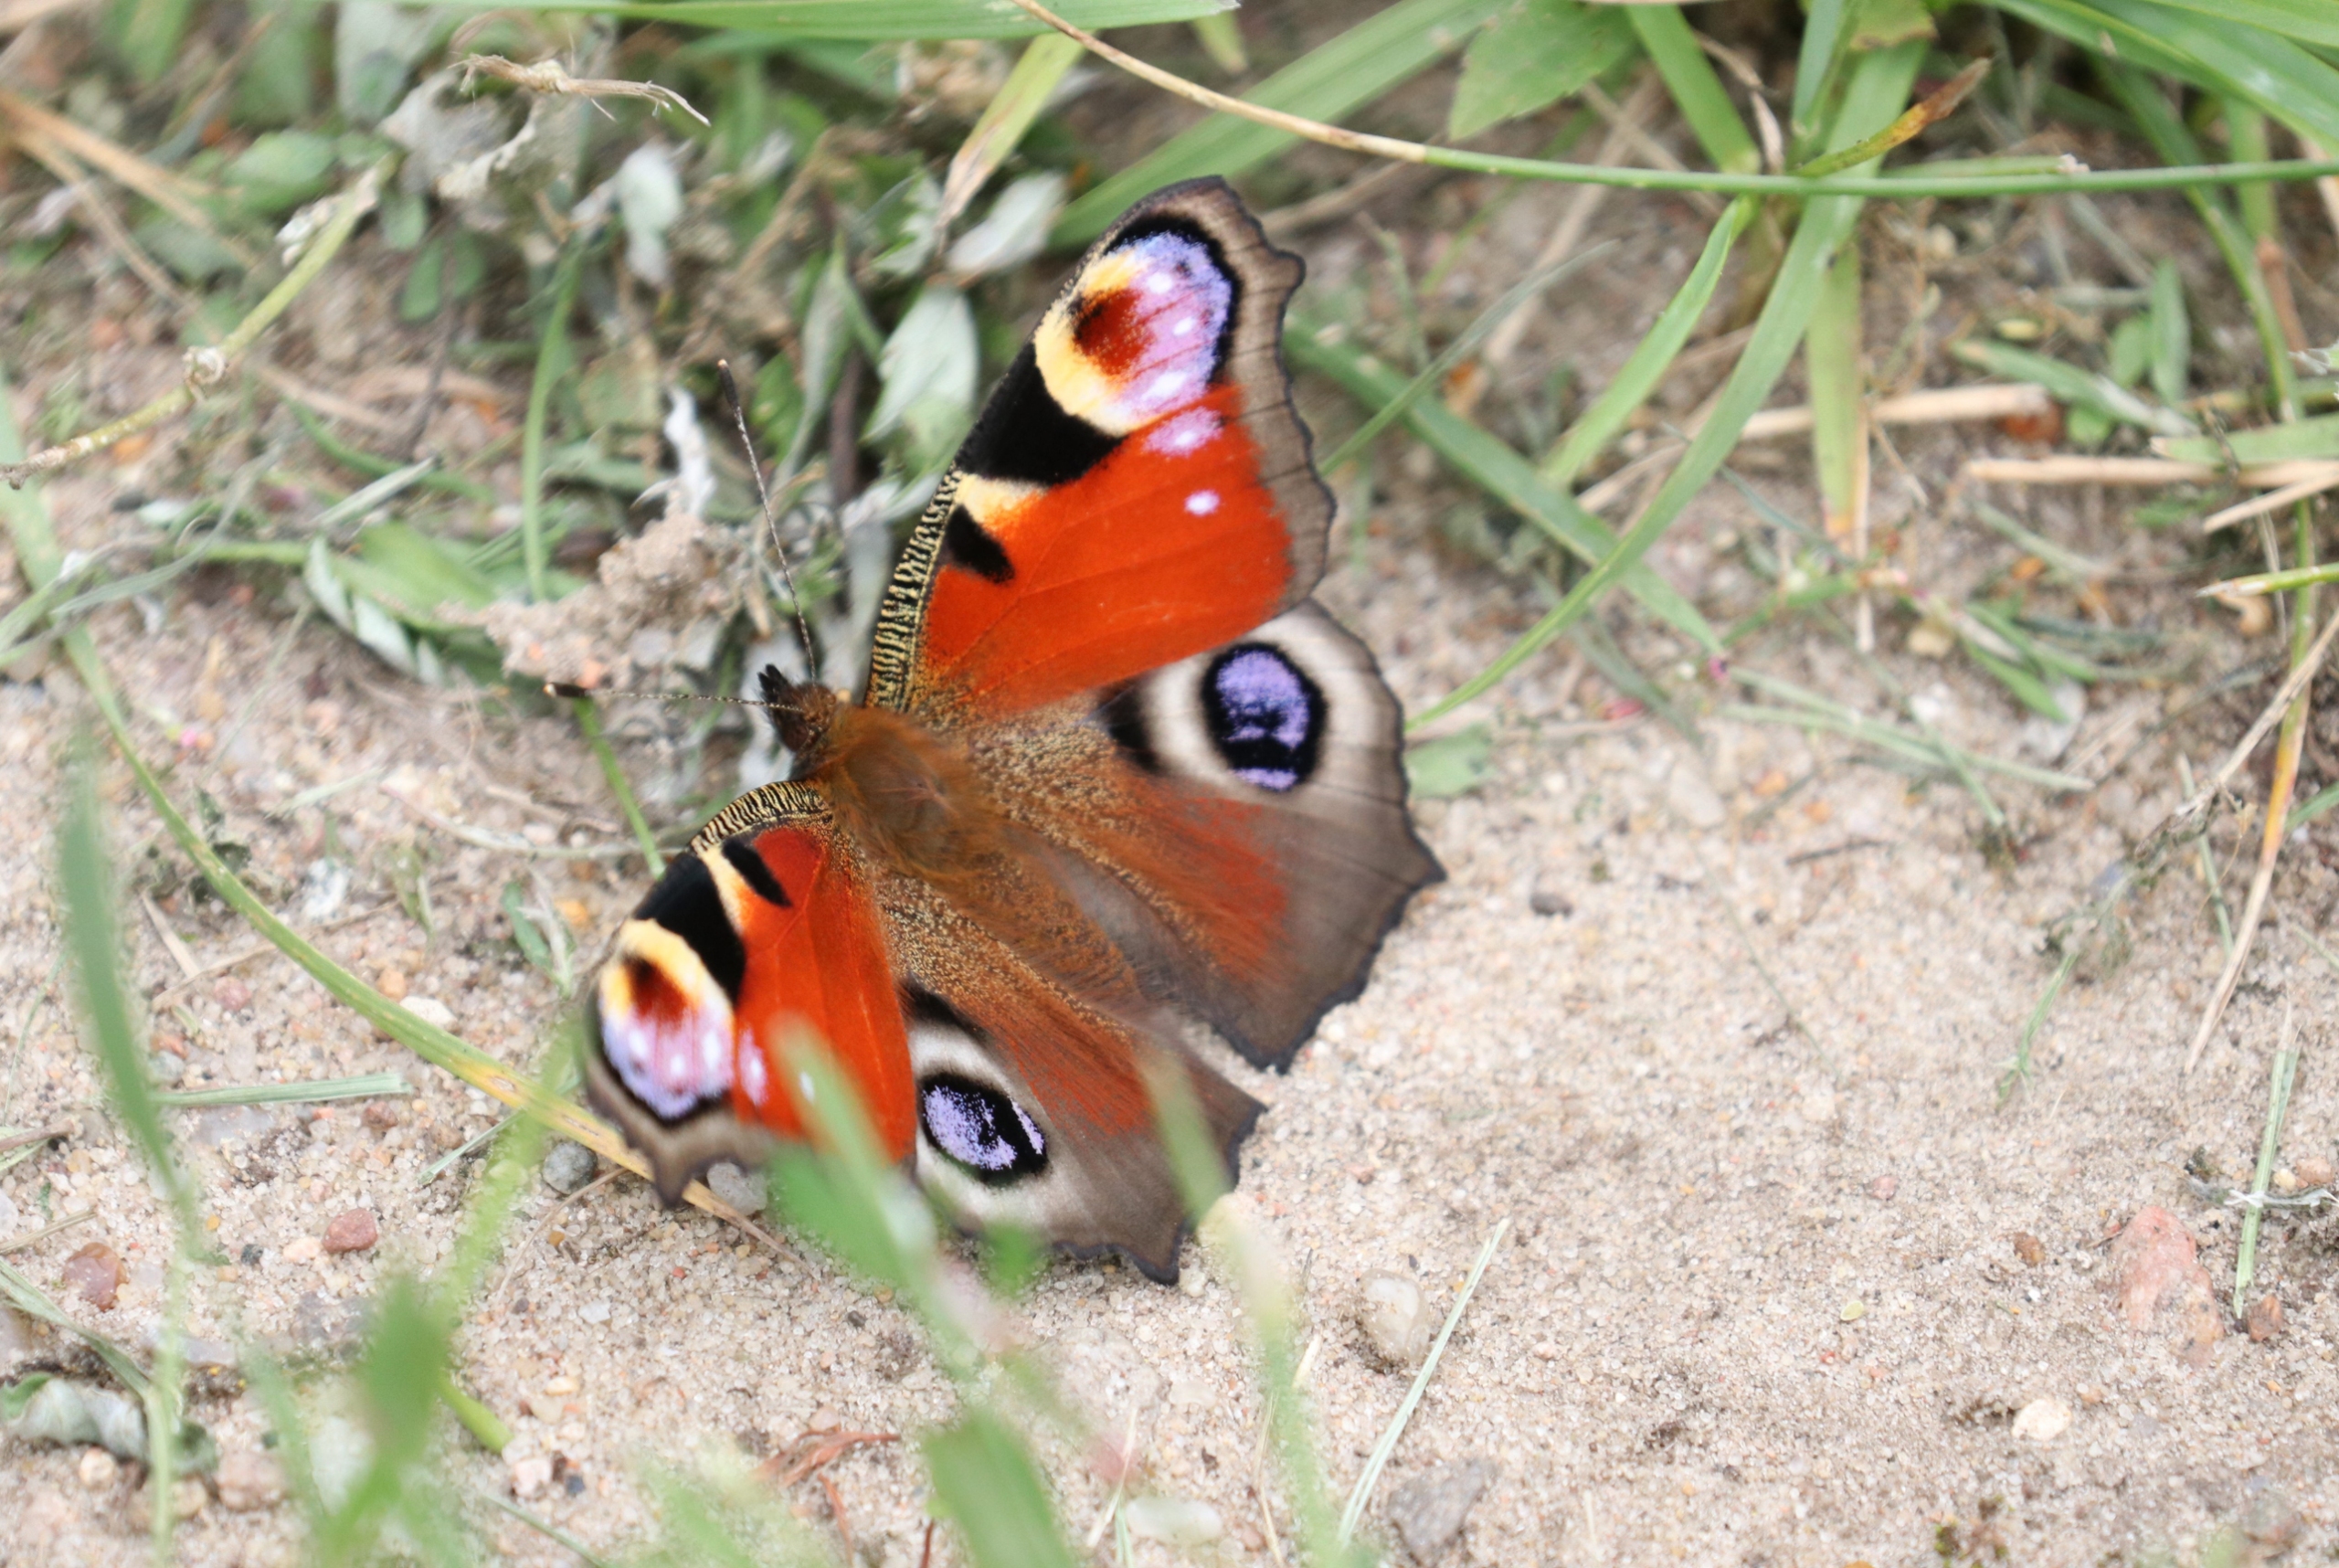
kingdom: Animalia
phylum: Arthropoda
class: Insecta
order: Lepidoptera
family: Nymphalidae
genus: Aglais
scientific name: Aglais io
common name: Dagpåfugleøje
